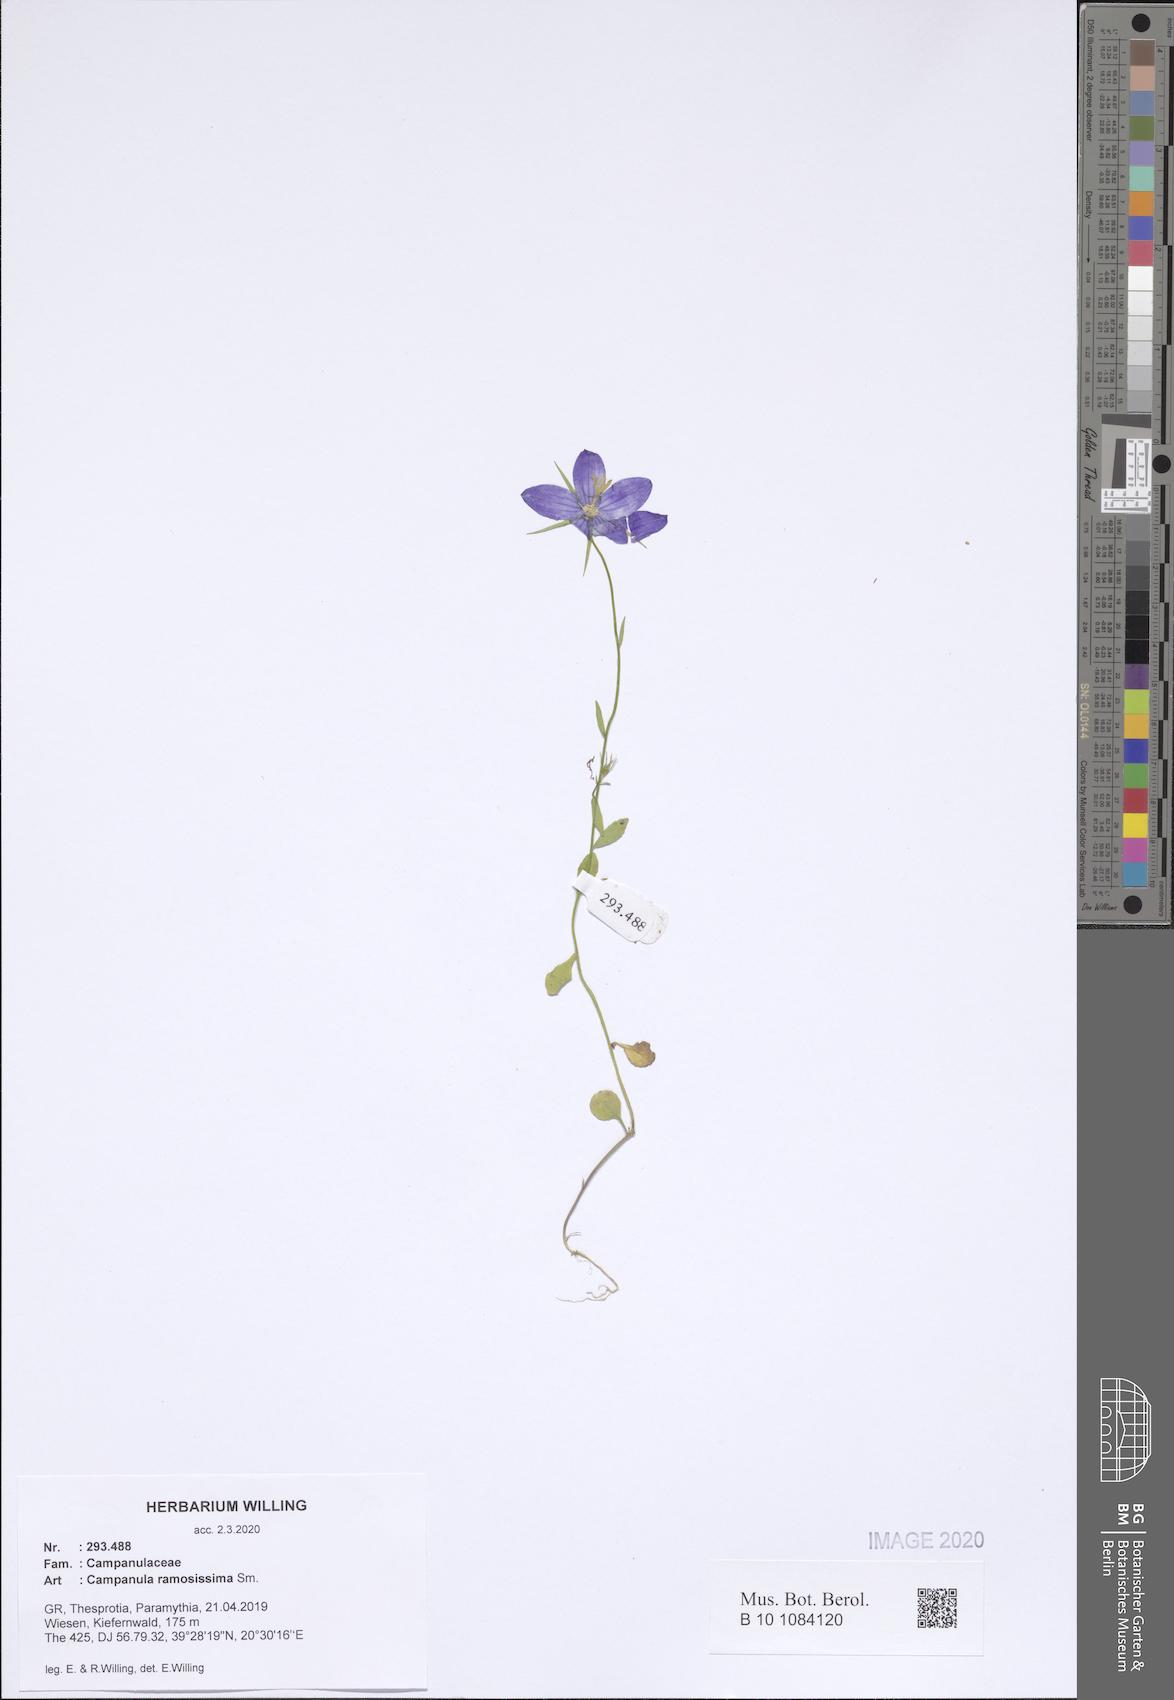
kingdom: Plantae
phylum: Tracheophyta
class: Magnoliopsida
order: Asterales
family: Campanulaceae
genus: Campanula
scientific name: Campanula ramosissima
